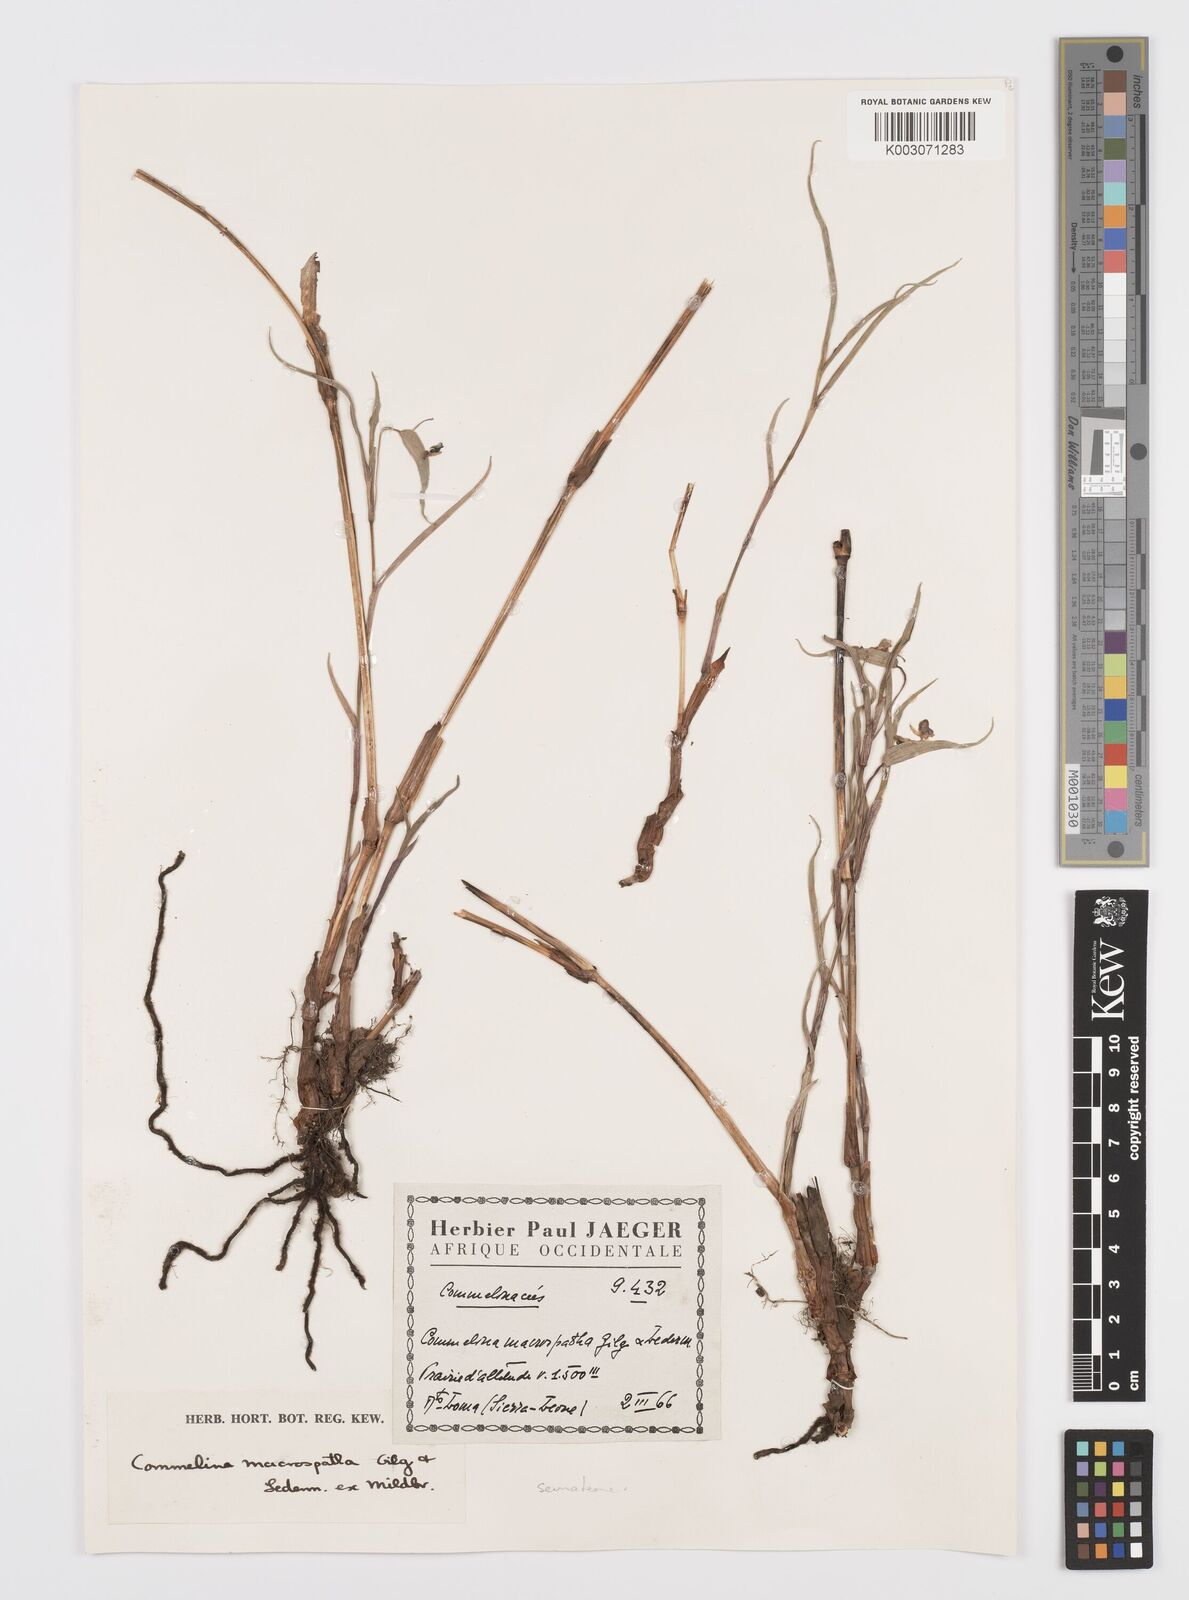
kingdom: Plantae
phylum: Tracheophyta
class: Liliopsida
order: Commelinales
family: Commelinaceae
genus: Commelina
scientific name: Commelina macrospatha
